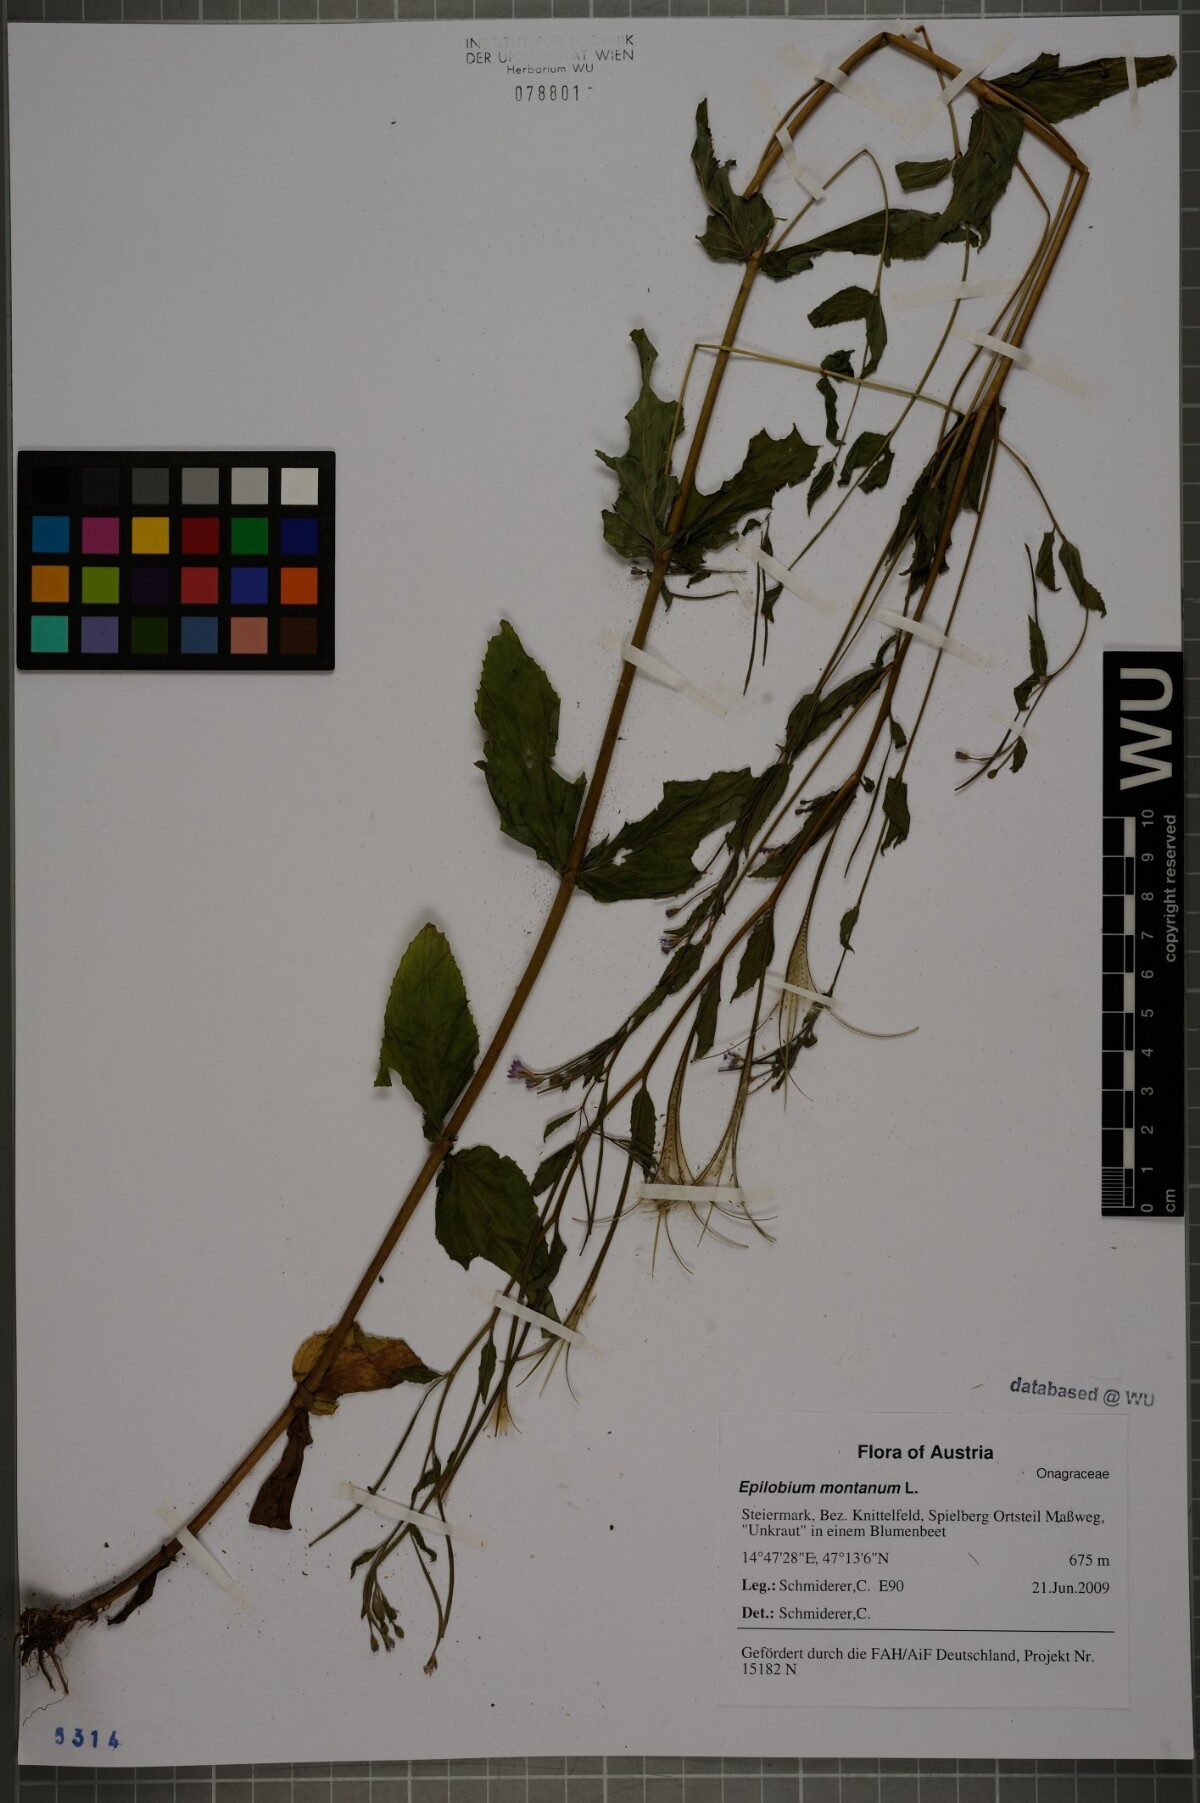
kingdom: Plantae
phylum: Tracheophyta
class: Magnoliopsida
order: Myrtales
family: Onagraceae
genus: Epilobium
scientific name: Epilobium montanum
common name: Broad-leaved willowherb
